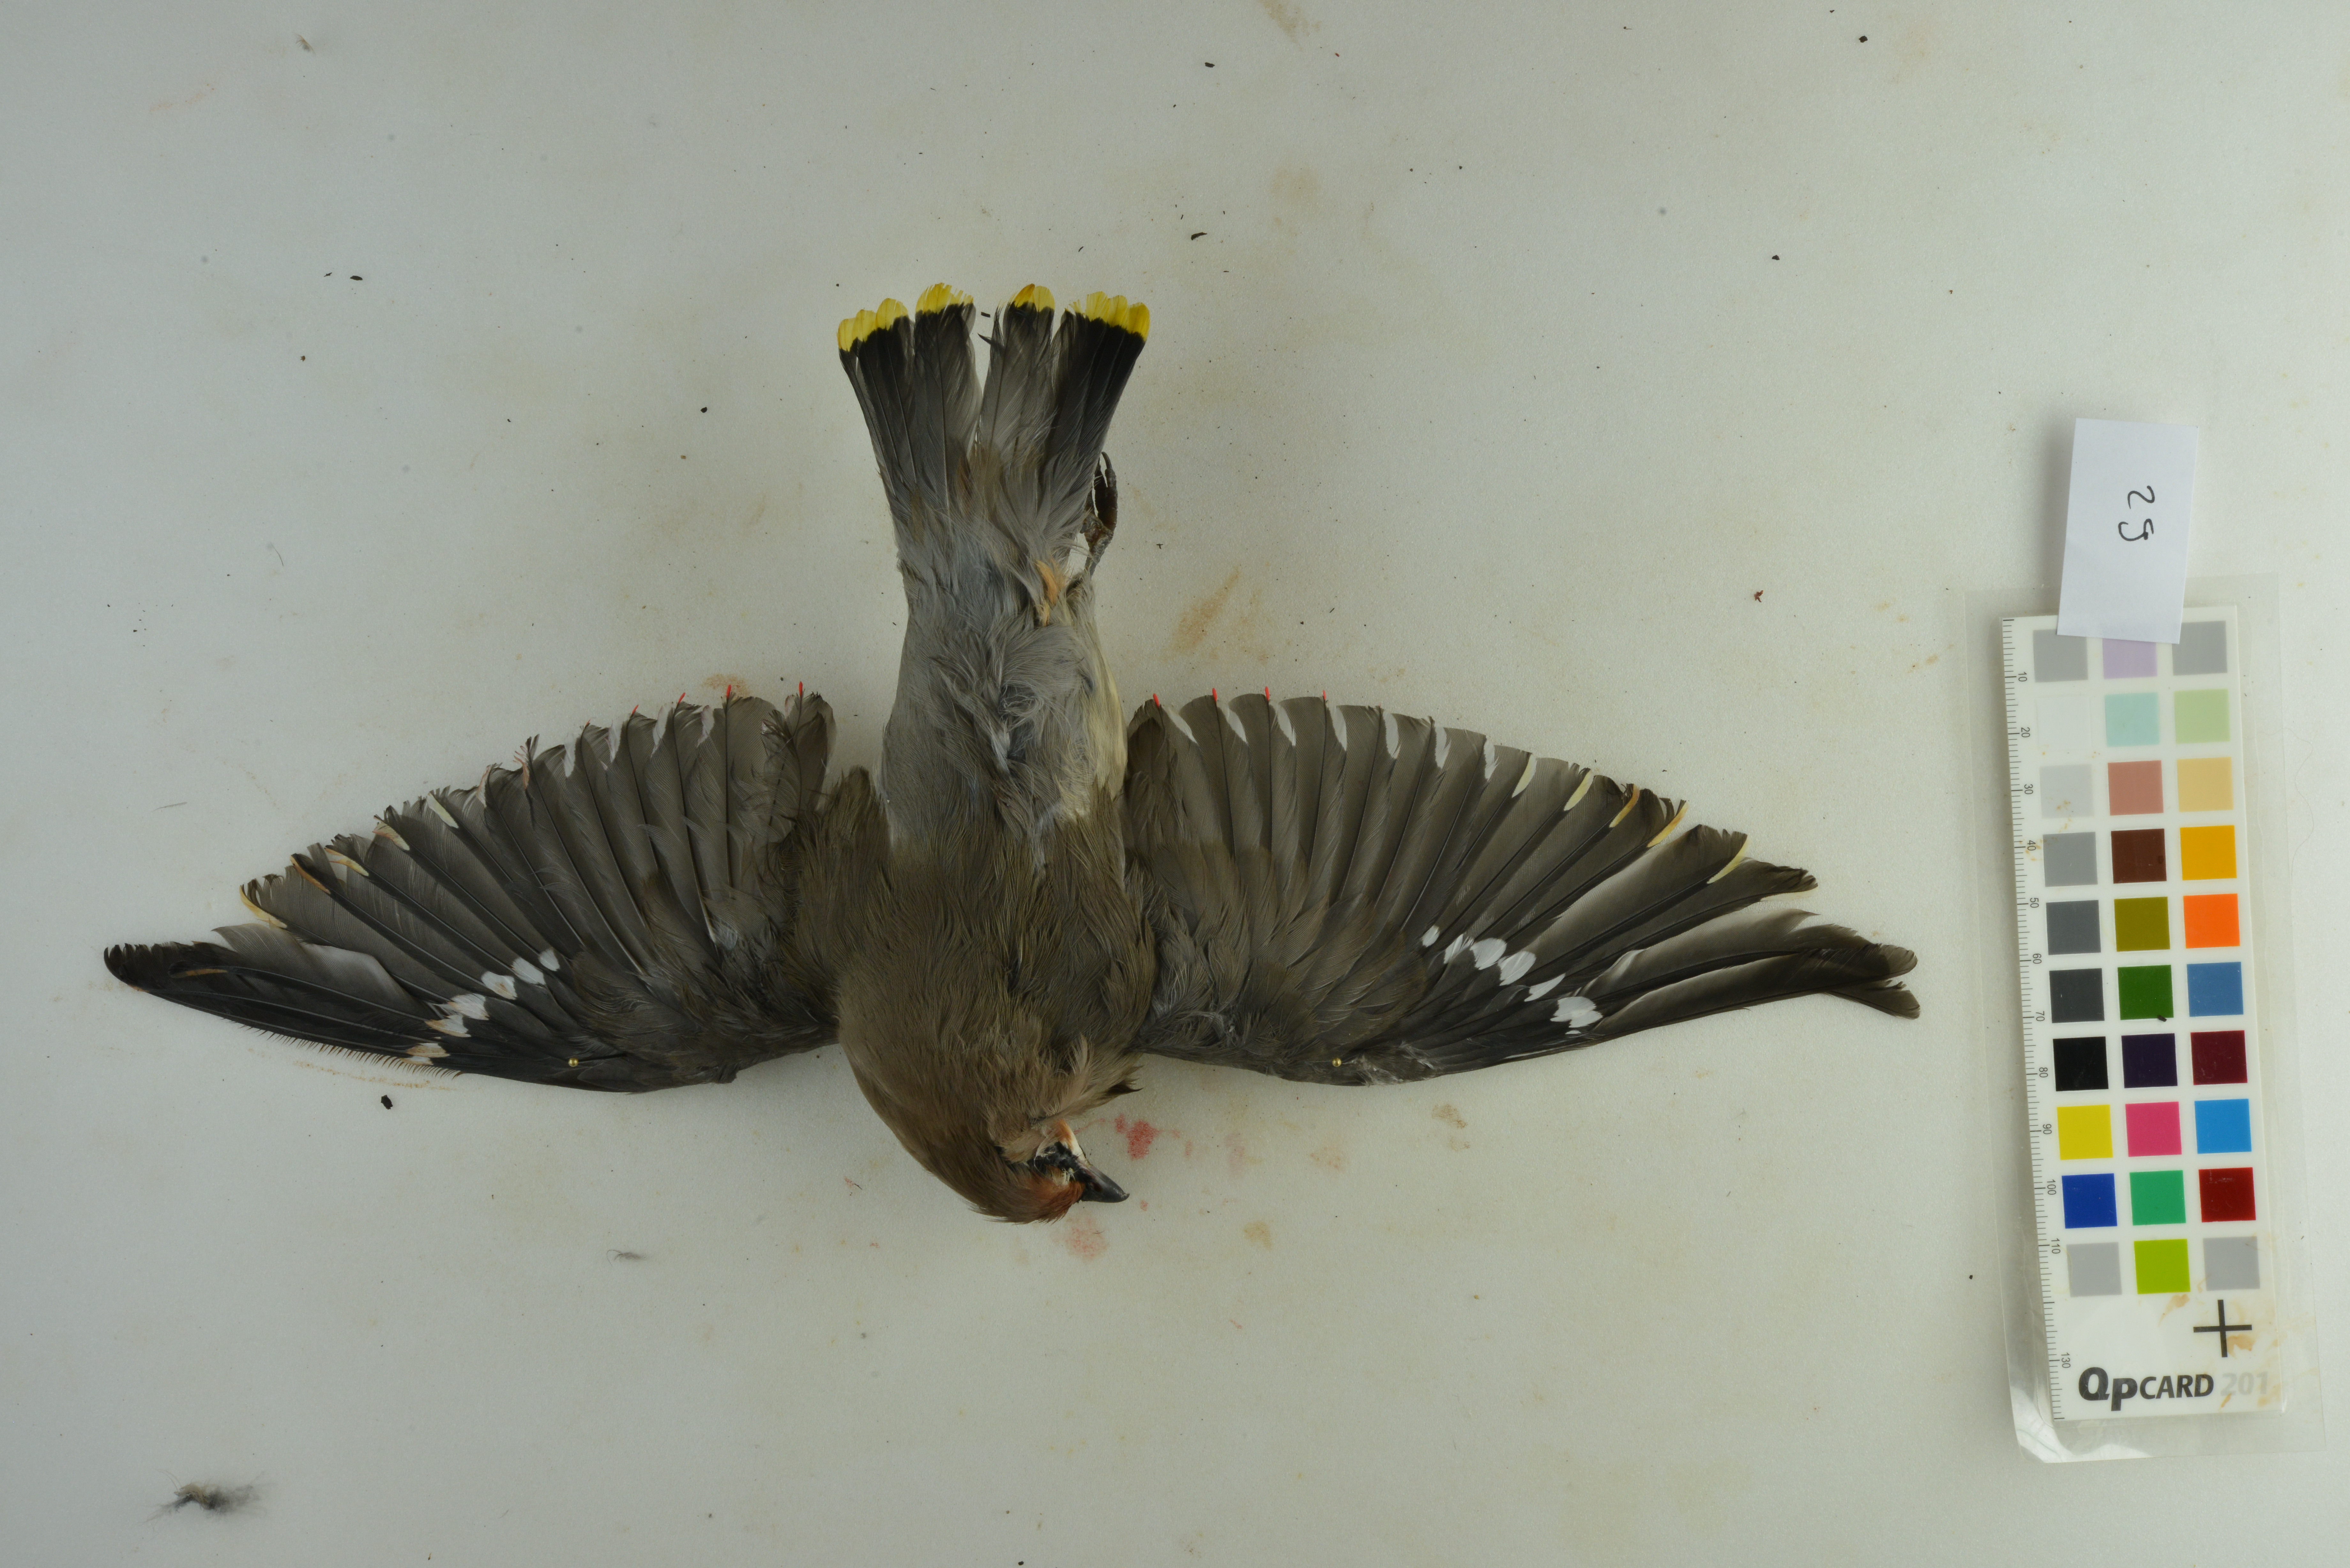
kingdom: Animalia
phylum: Chordata
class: Aves
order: Passeriformes
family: Bombycillidae
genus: Bombycilla
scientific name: Bombycilla garrulus
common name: Bohemian waxwing
